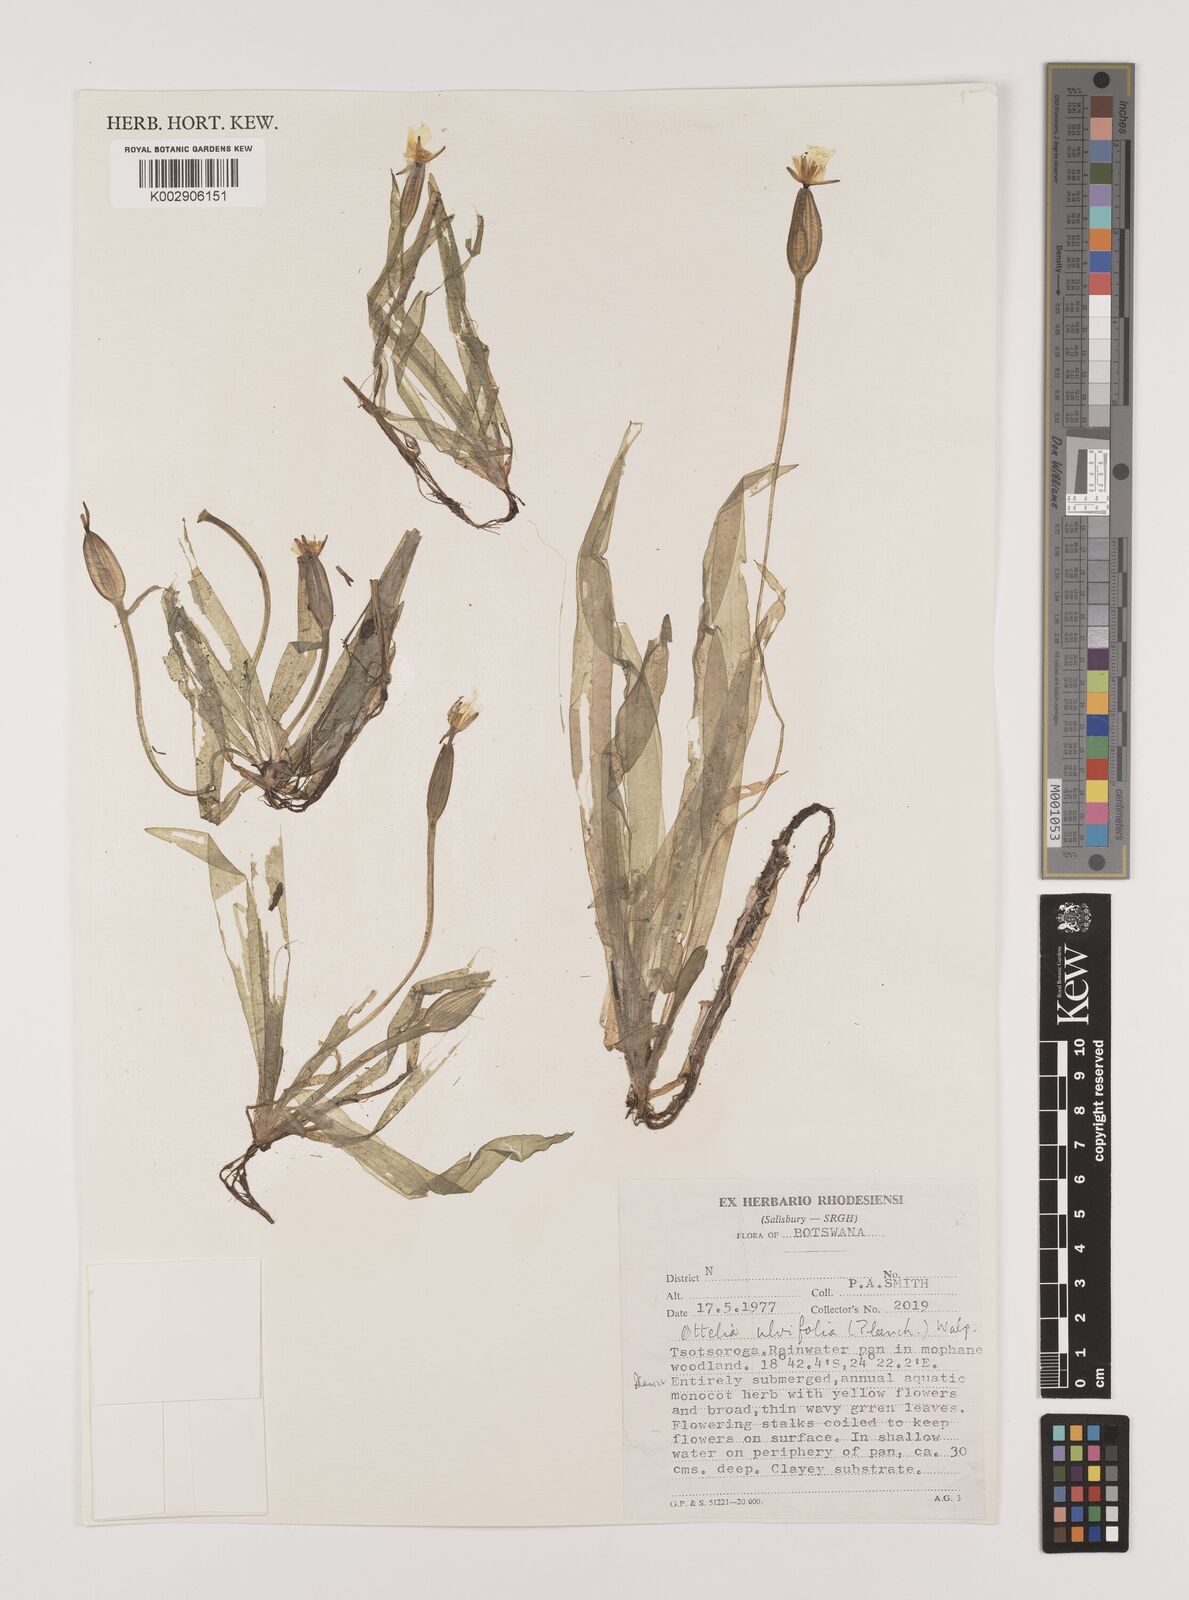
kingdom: Plantae
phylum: Tracheophyta
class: Liliopsida
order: Alismatales
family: Hydrocharitaceae
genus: Ottelia
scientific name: Ottelia ulvifolia
